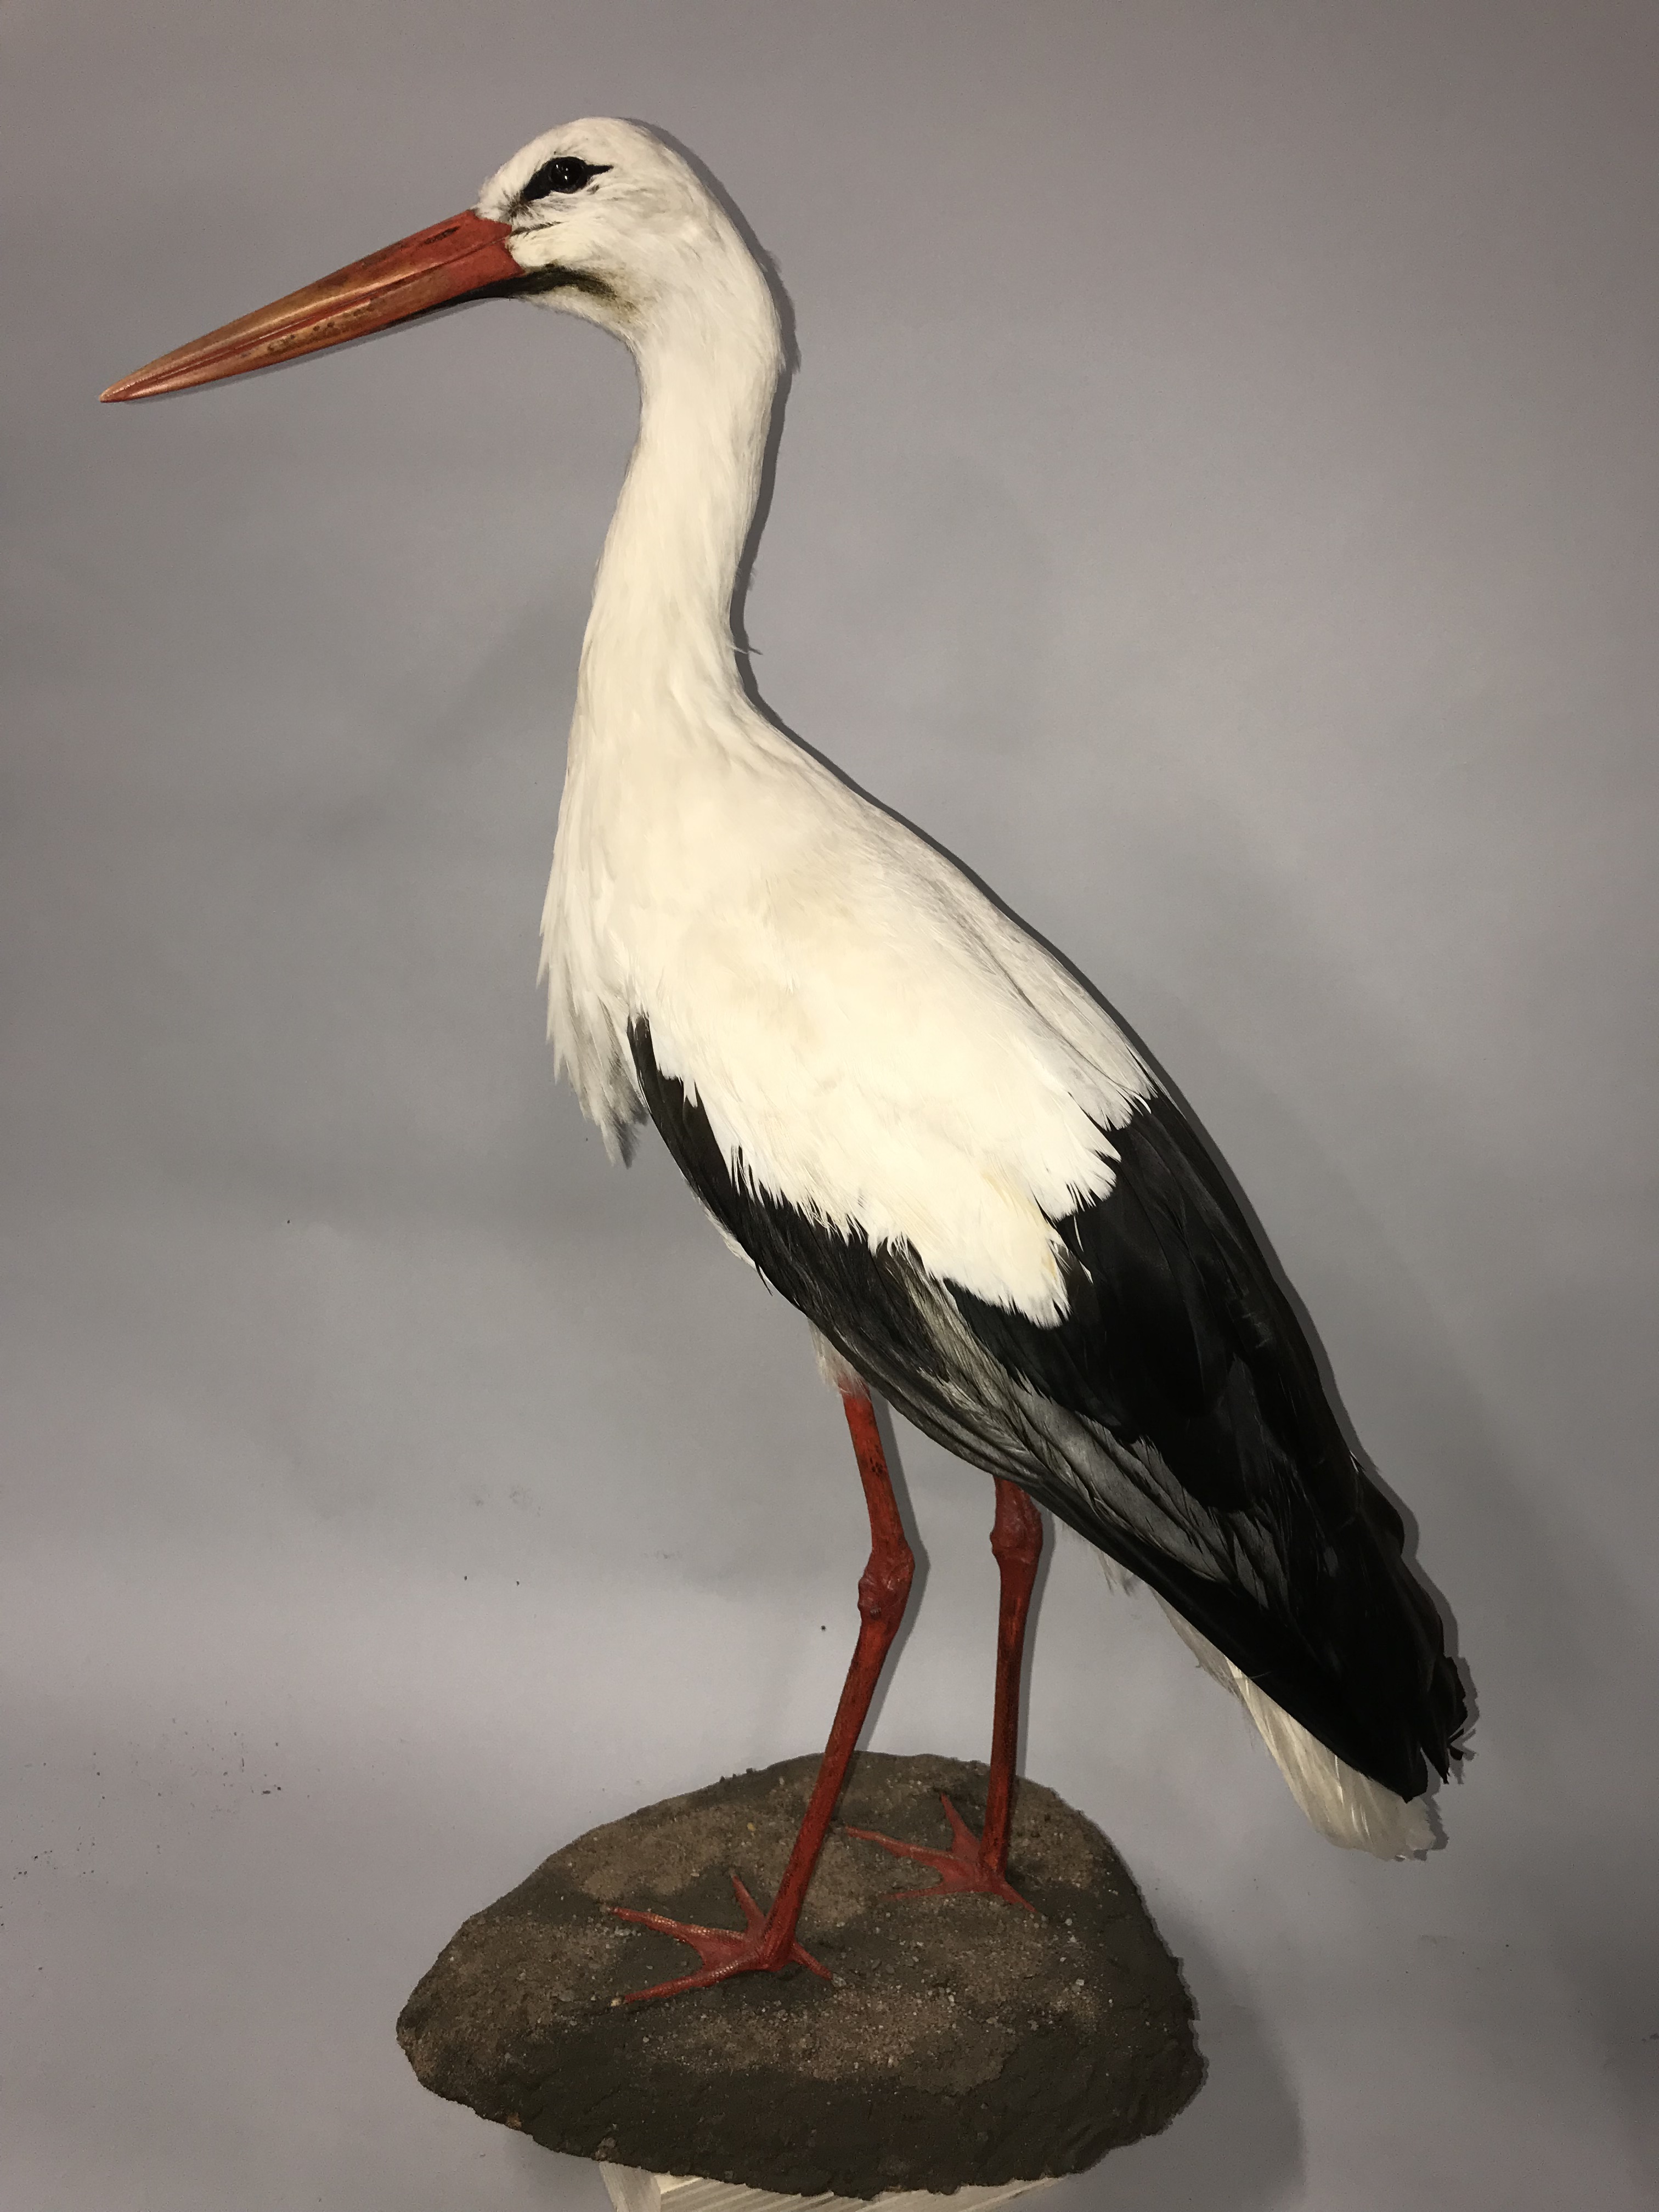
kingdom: Animalia
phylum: Chordata
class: Aves
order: Ciconiiformes
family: Ciconiidae
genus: Ciconia
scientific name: Ciconia ciconia
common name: White stork
